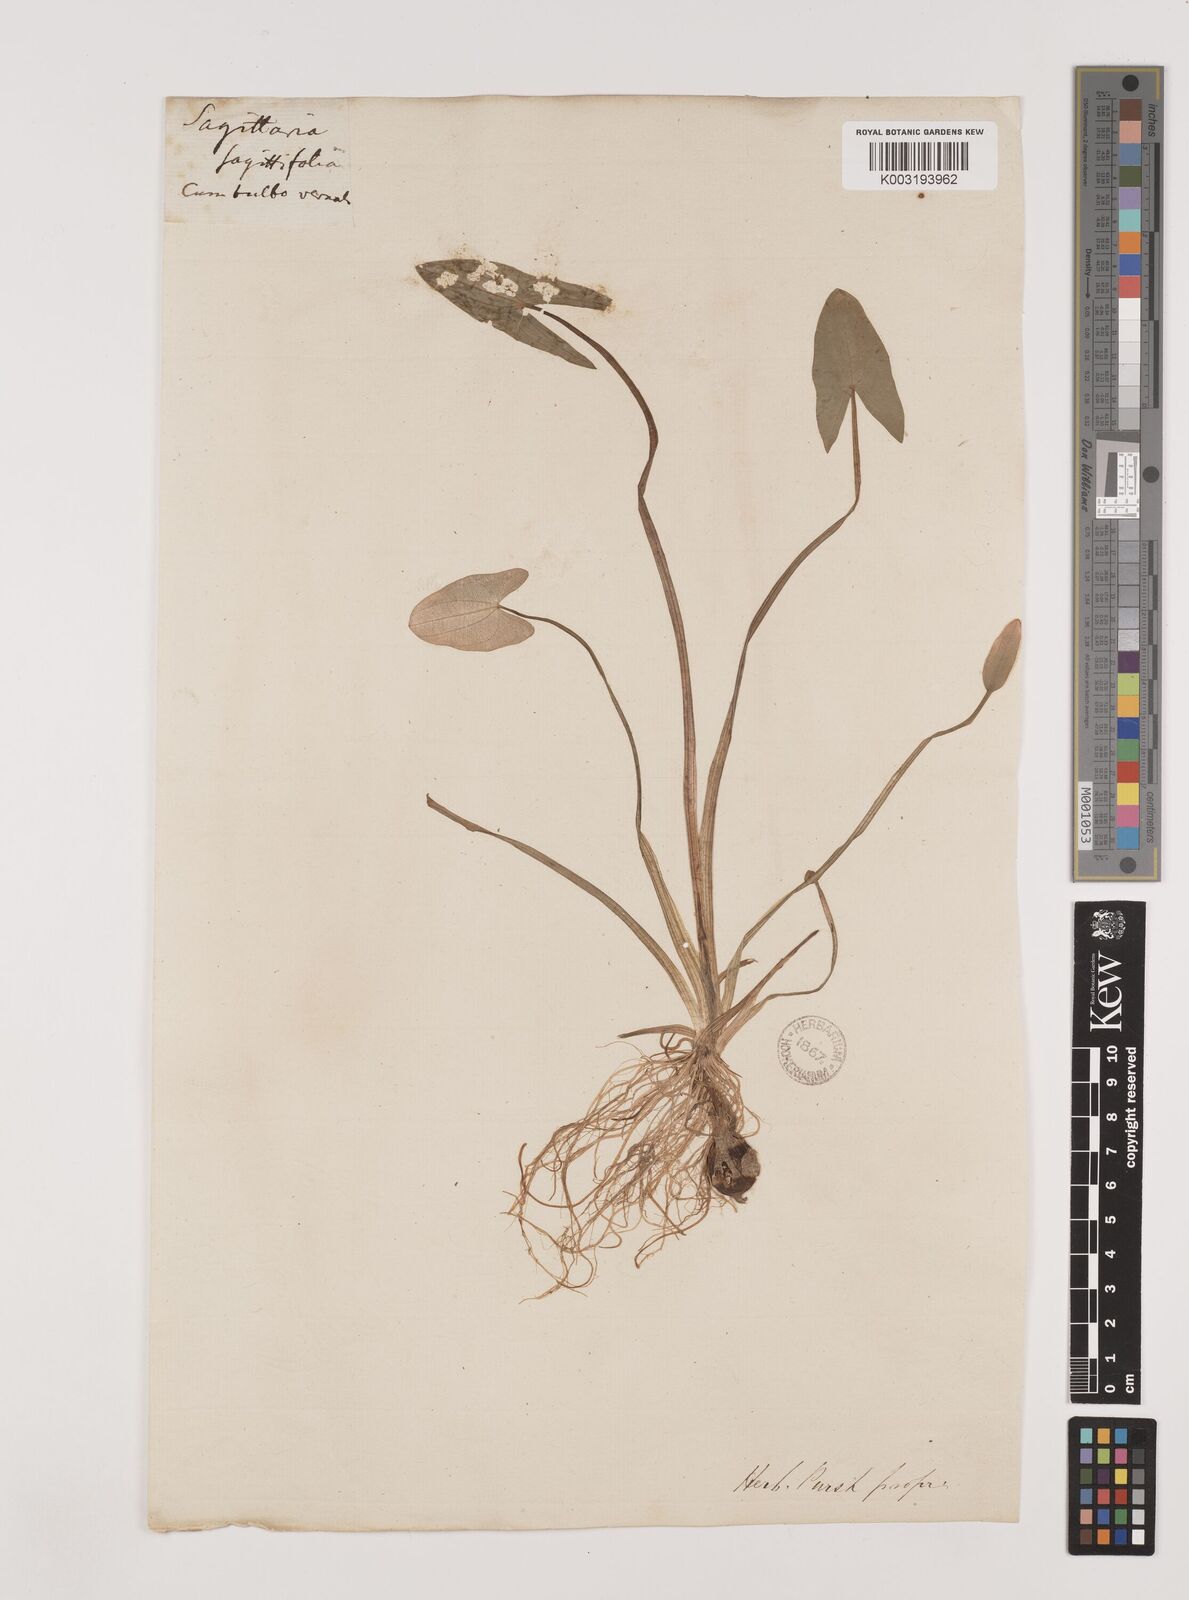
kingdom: Plantae
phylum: Tracheophyta
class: Liliopsida
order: Alismatales
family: Alismataceae
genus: Sagittaria
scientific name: Sagittaria sagittifolia
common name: Arrowhead
